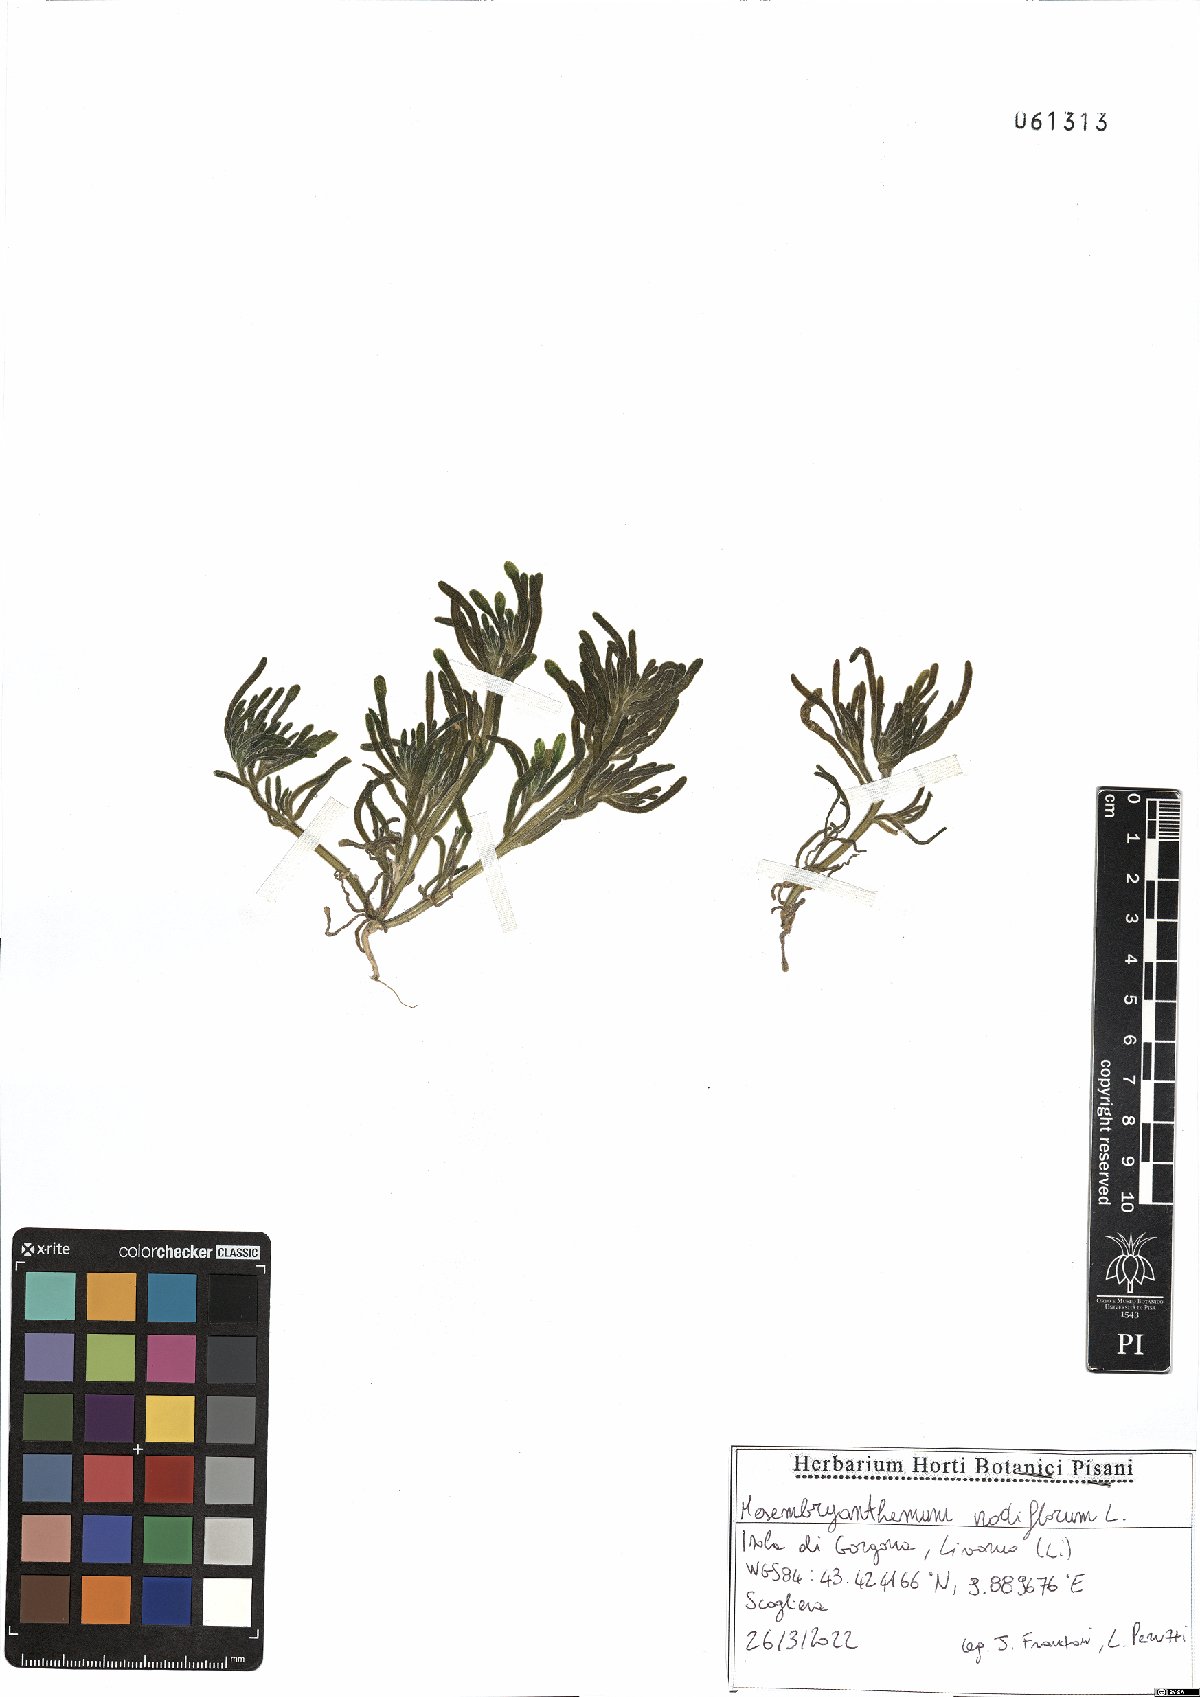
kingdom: Plantae
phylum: Tracheophyta
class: Magnoliopsida
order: Caryophyllales
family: Aizoaceae
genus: Mesembryanthemum
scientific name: Mesembryanthemum nodiflorum
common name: Slenderleaf iceplant
